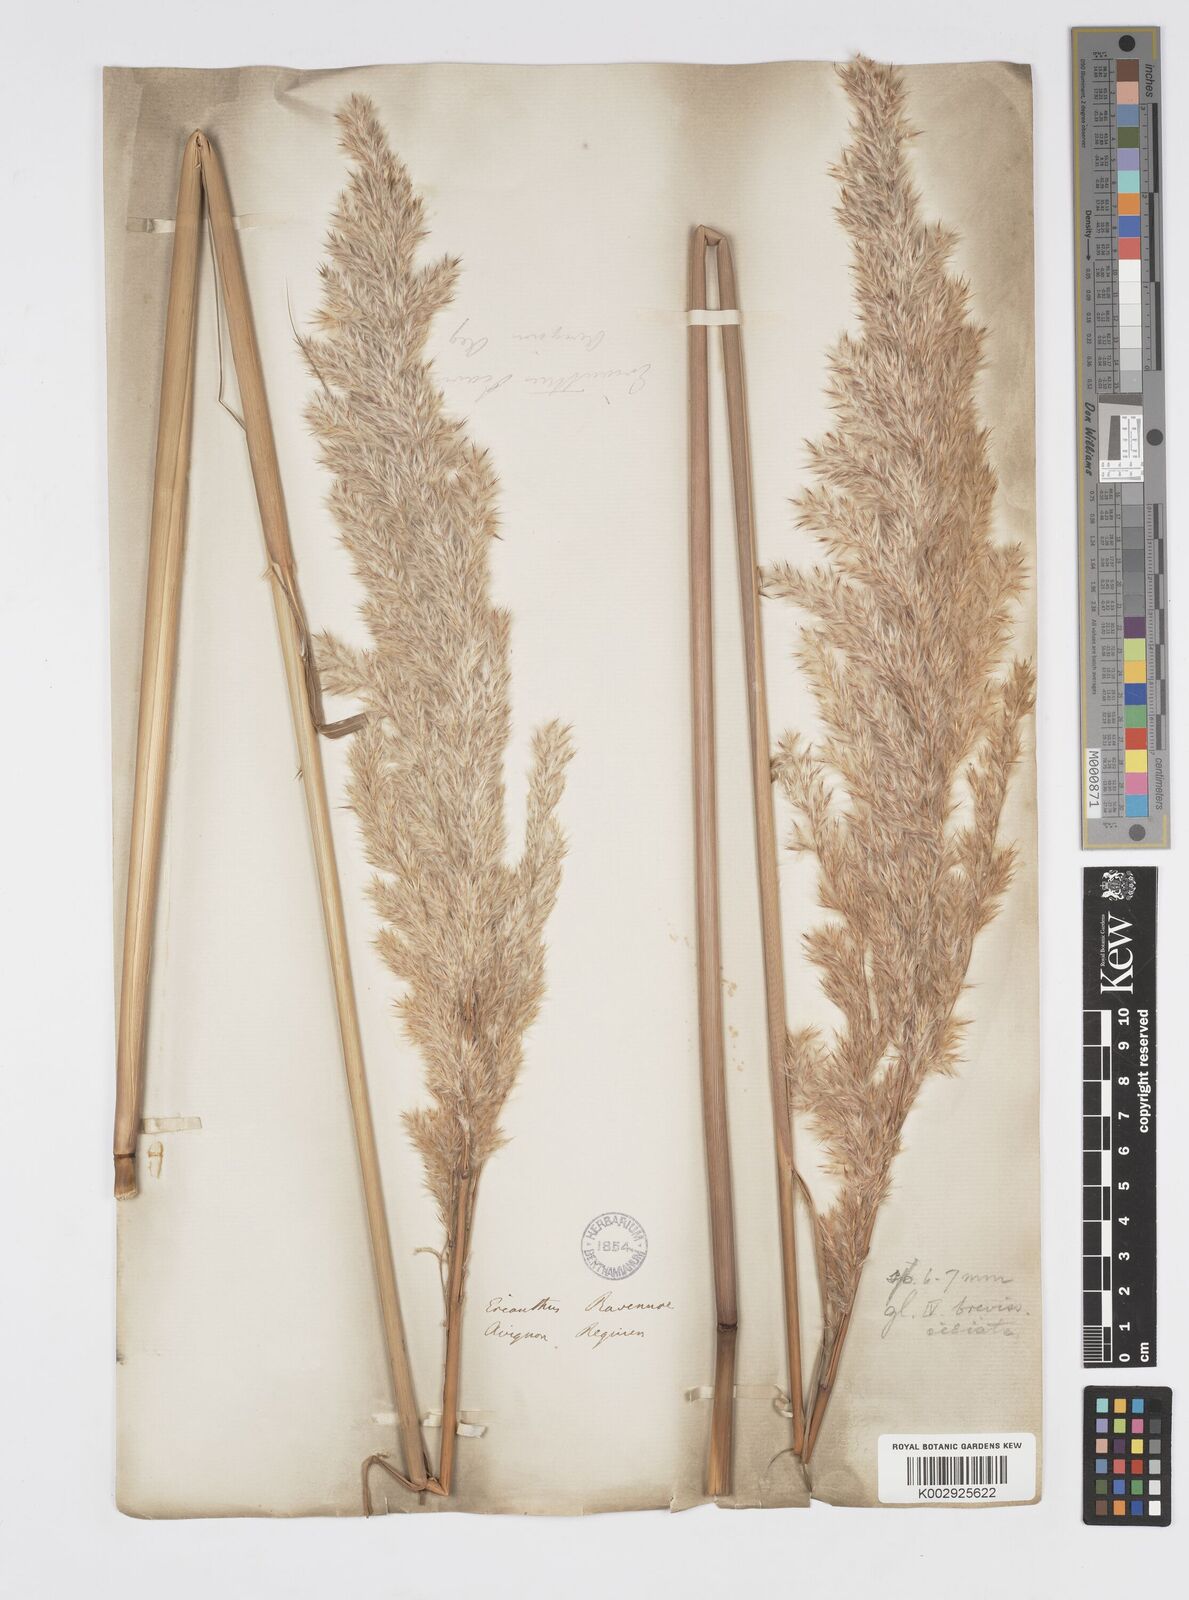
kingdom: Plantae
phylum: Tracheophyta
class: Liliopsida
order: Poales
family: Poaceae
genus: Tripidium
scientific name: Tripidium ravennae
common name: Ravenna grass
